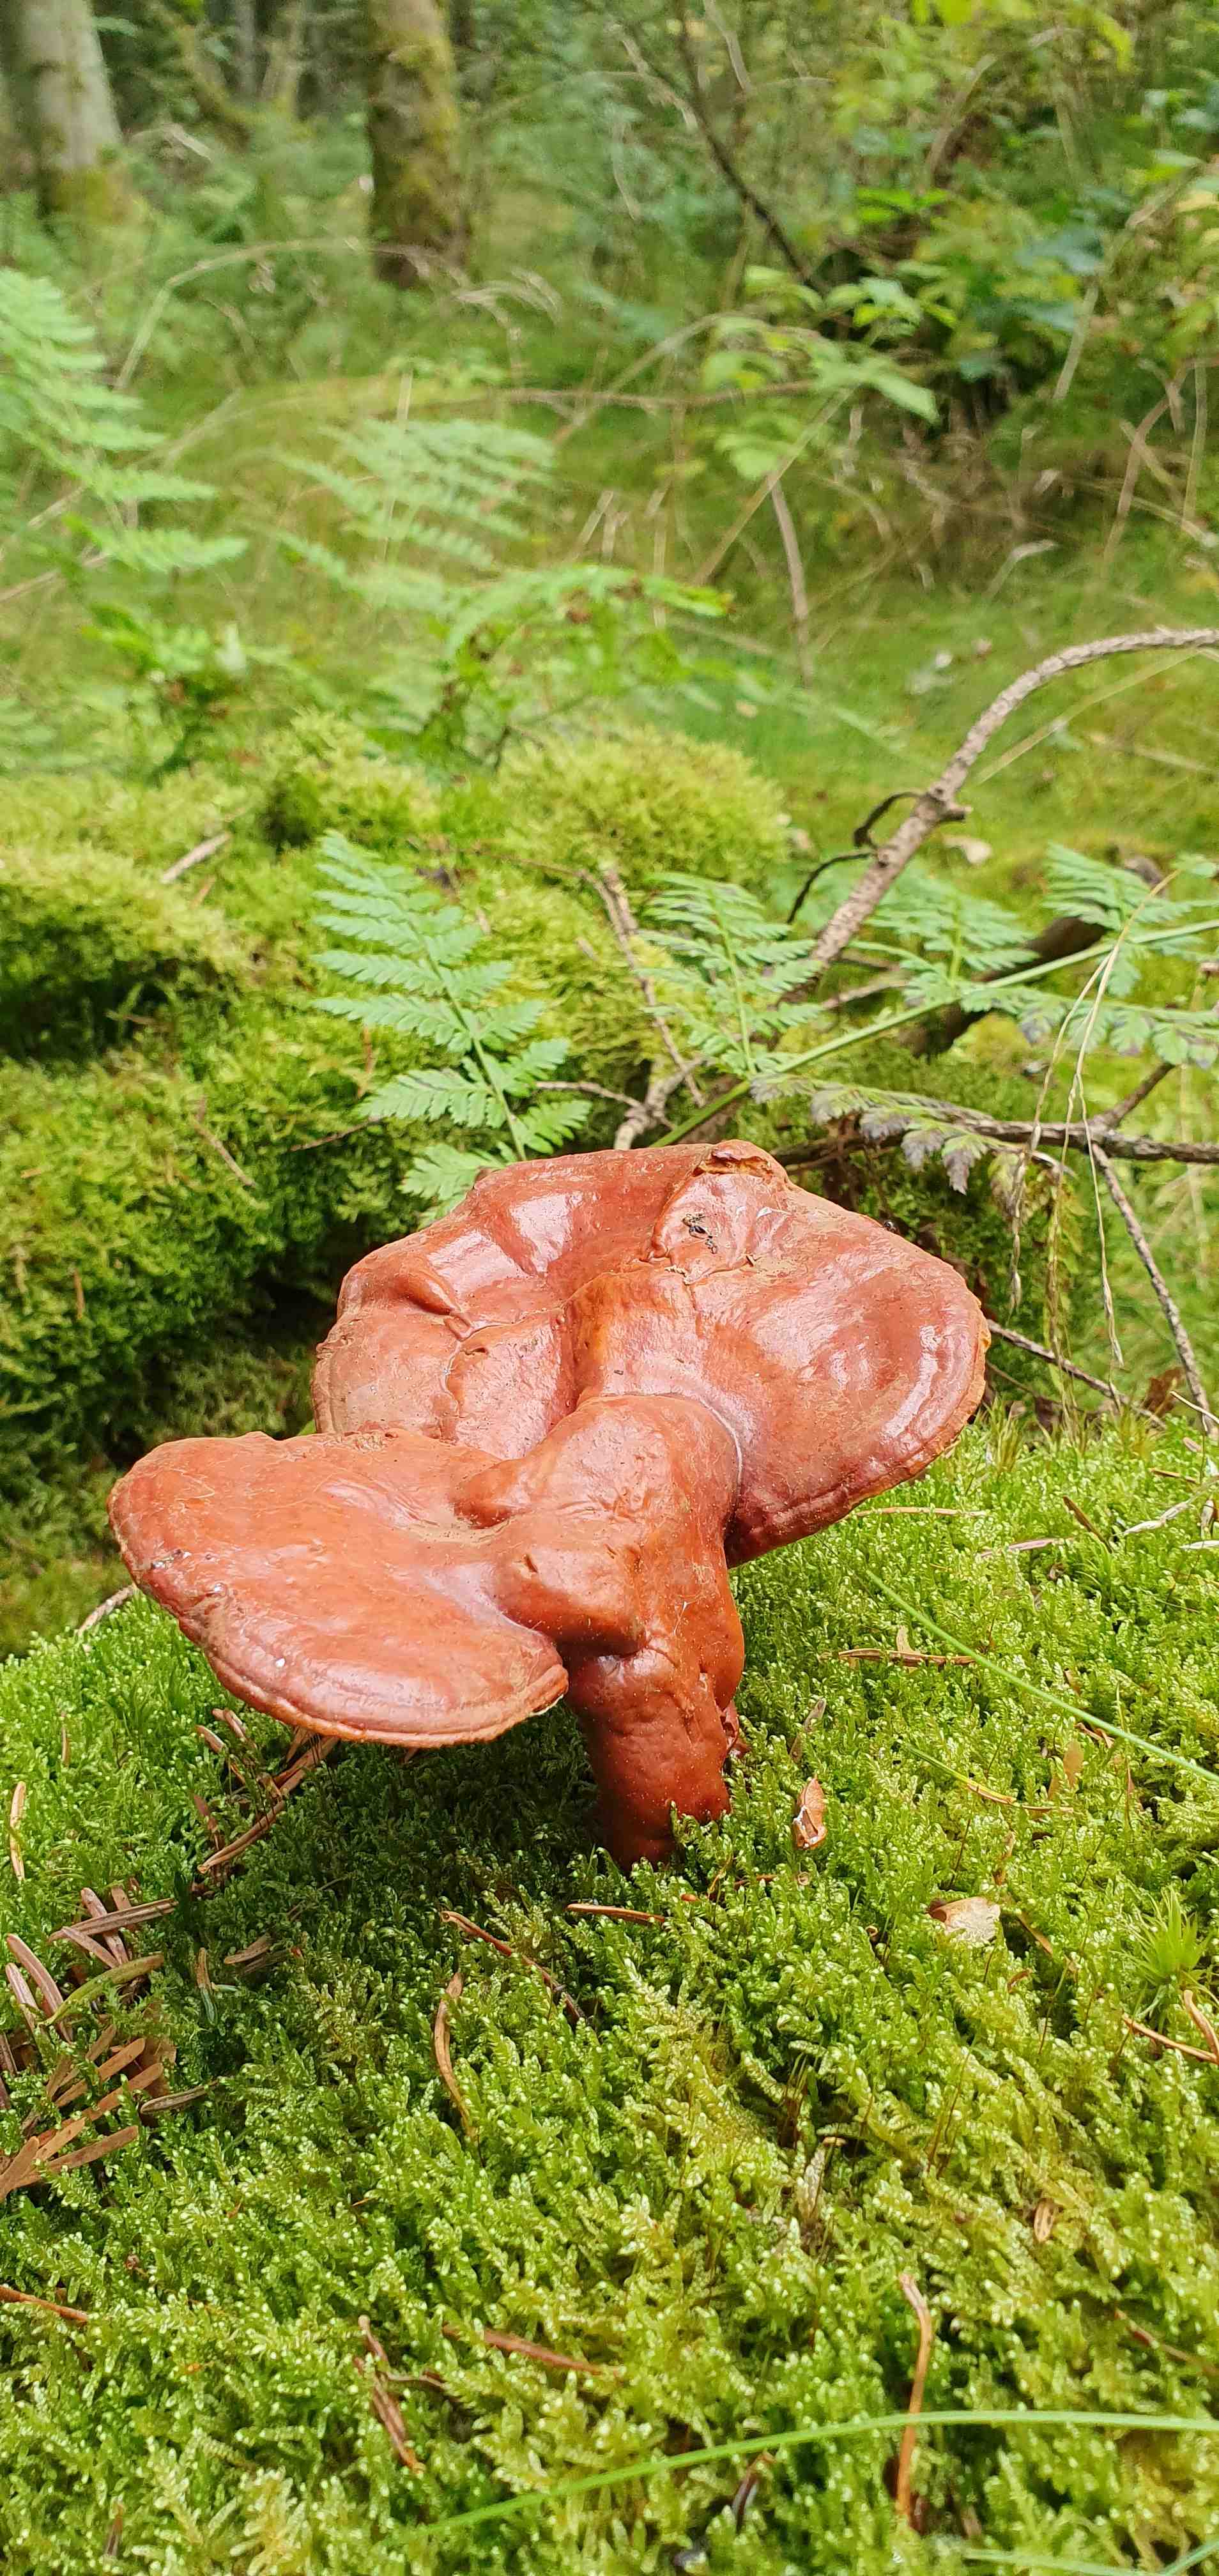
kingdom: Fungi
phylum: Basidiomycota
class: Agaricomycetes
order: Polyporales
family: Polyporaceae
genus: Ganoderma
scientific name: Ganoderma lucidum
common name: skinnende lakporesvamp
